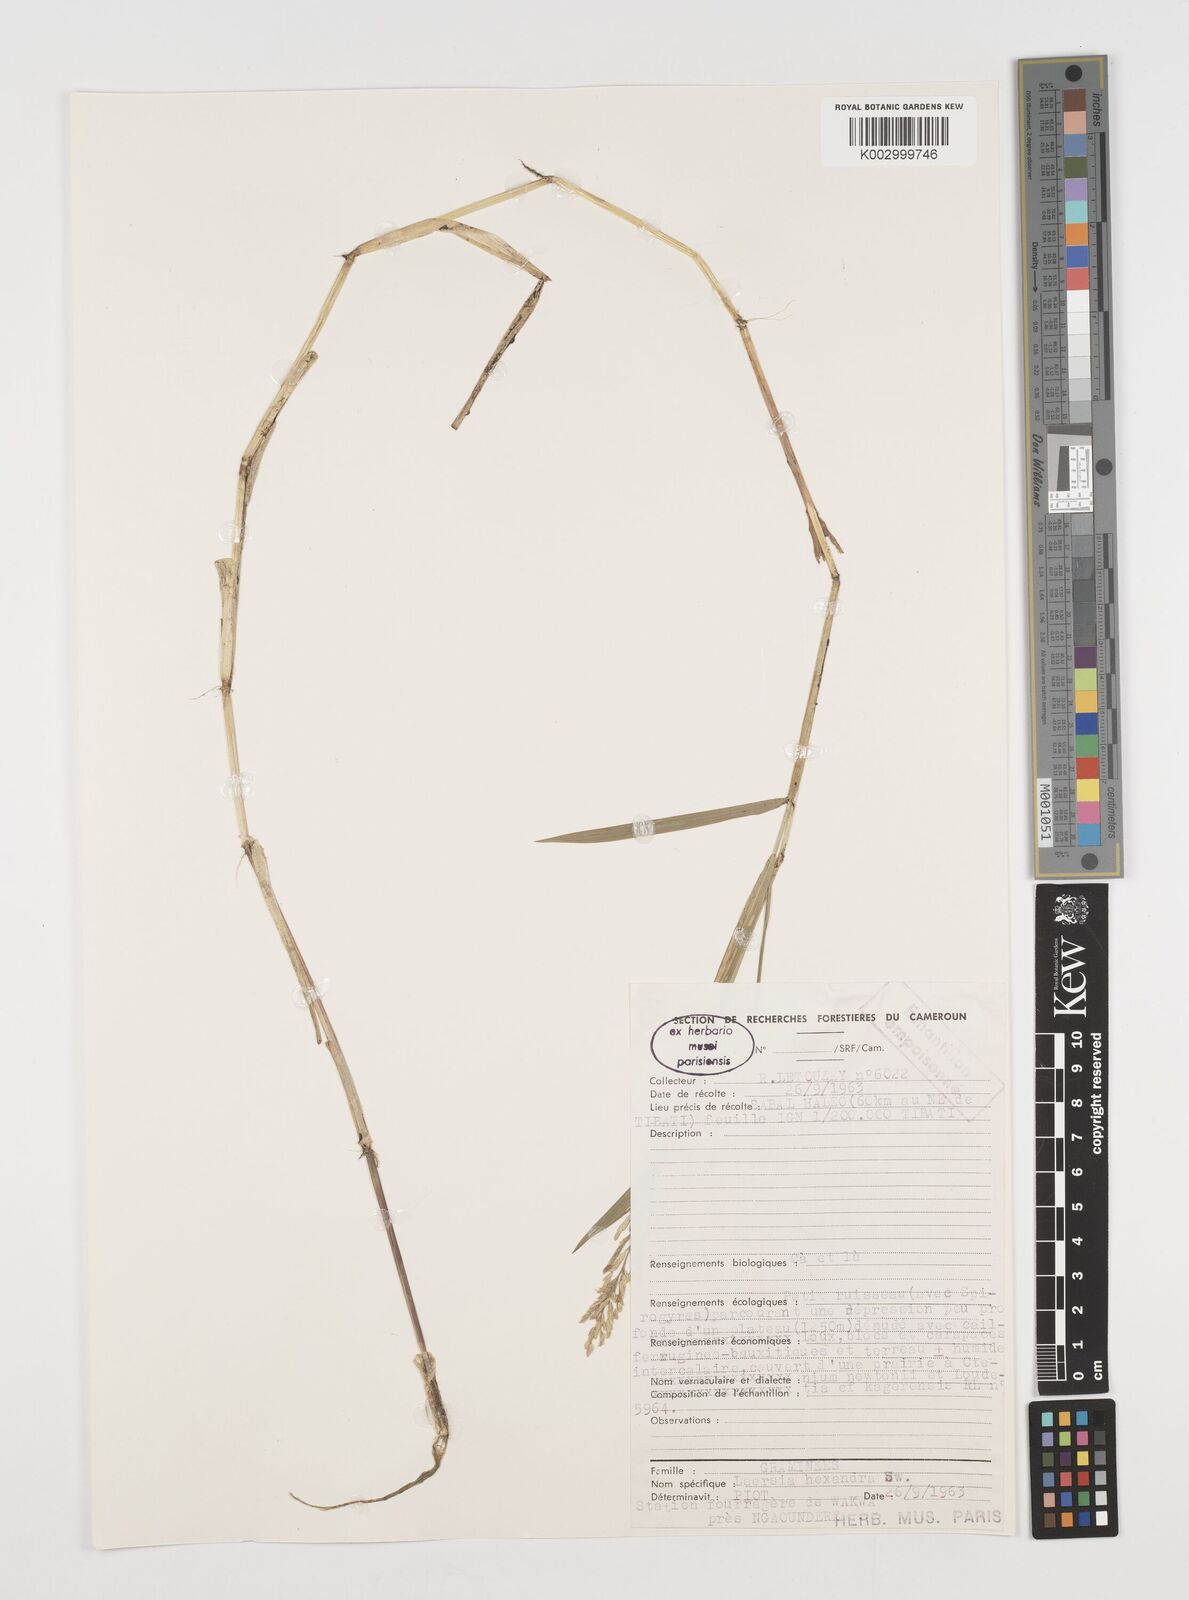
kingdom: Plantae
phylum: Tracheophyta
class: Liliopsida
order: Poales
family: Poaceae
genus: Leersia
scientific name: Leersia hexandra
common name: Southern cut grass
